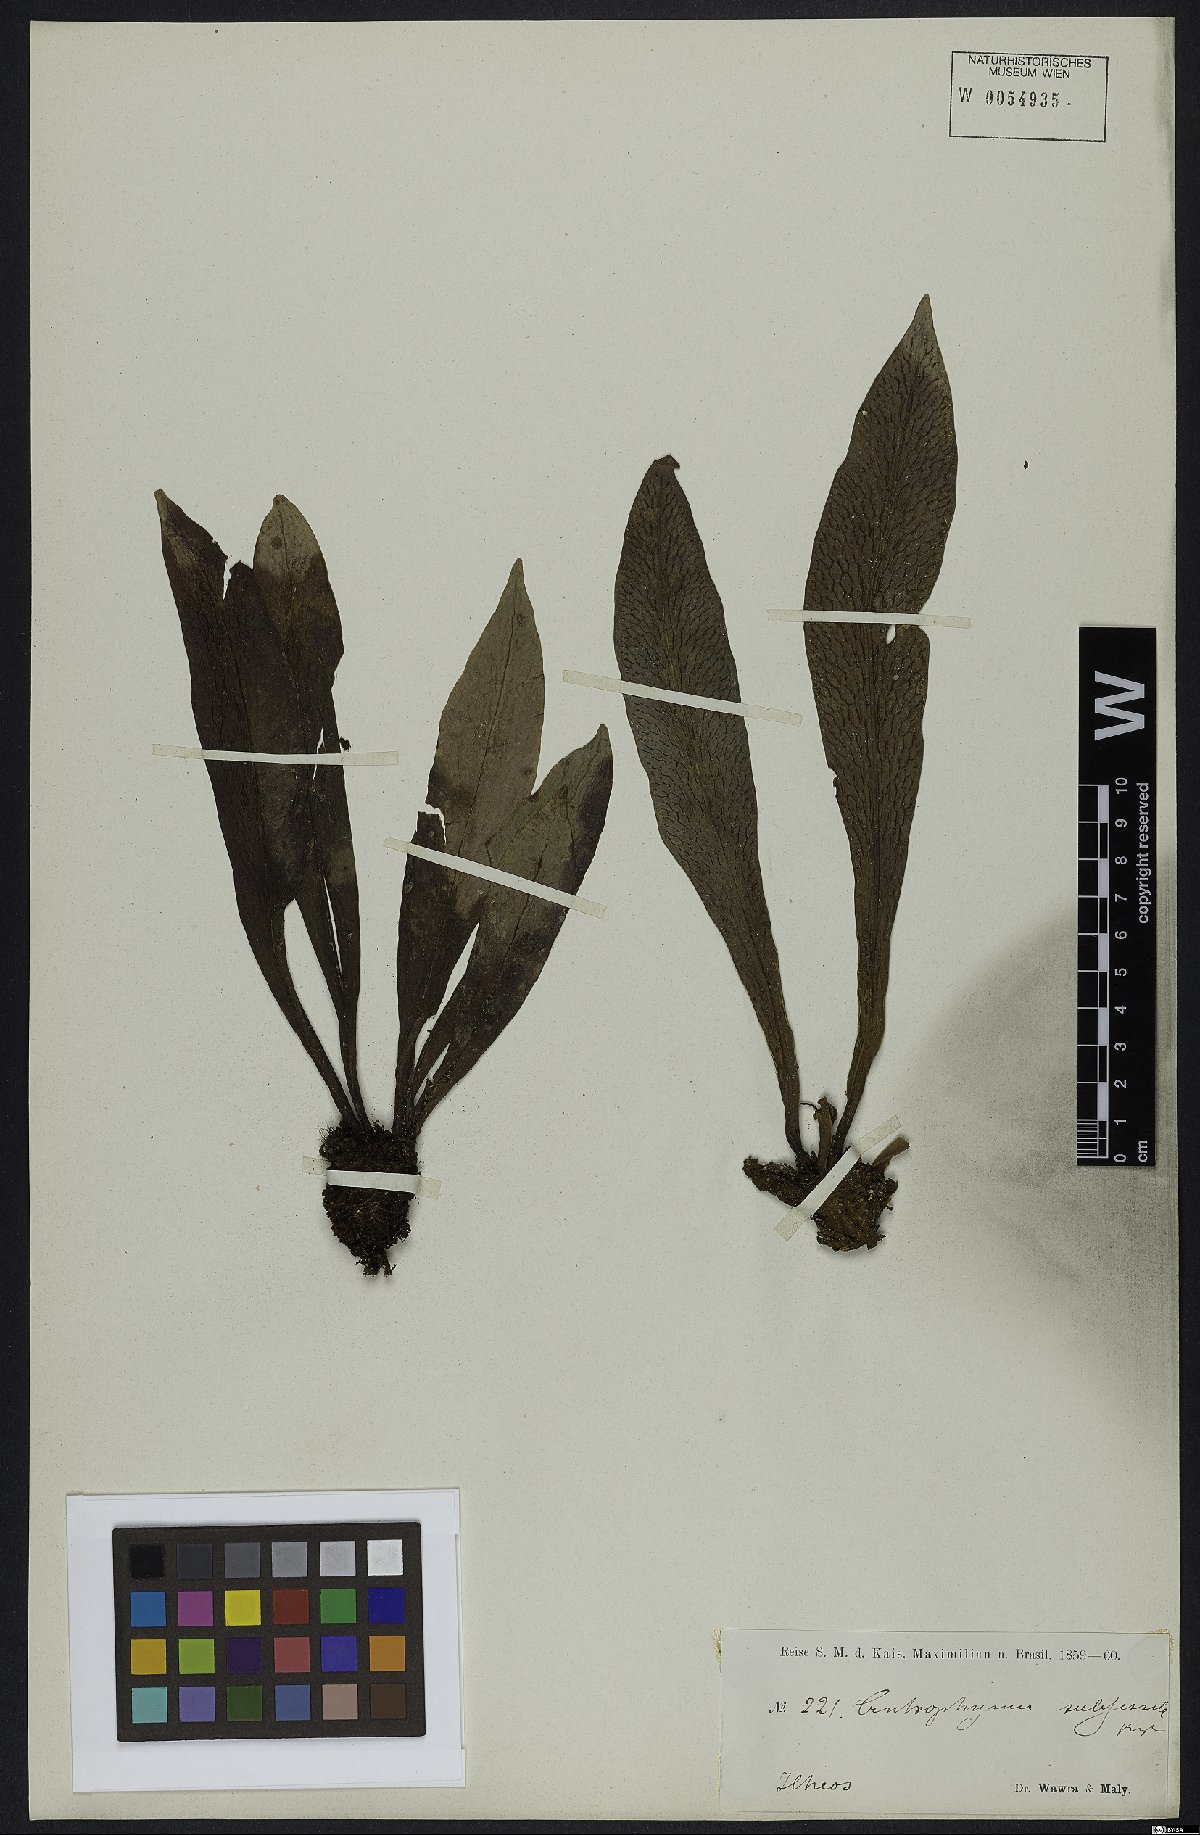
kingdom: Plantae
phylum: Tracheophyta
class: Polypodiopsida
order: Polypodiales
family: Pteridaceae
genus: Polytaenium
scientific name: Polytaenium cajenense
